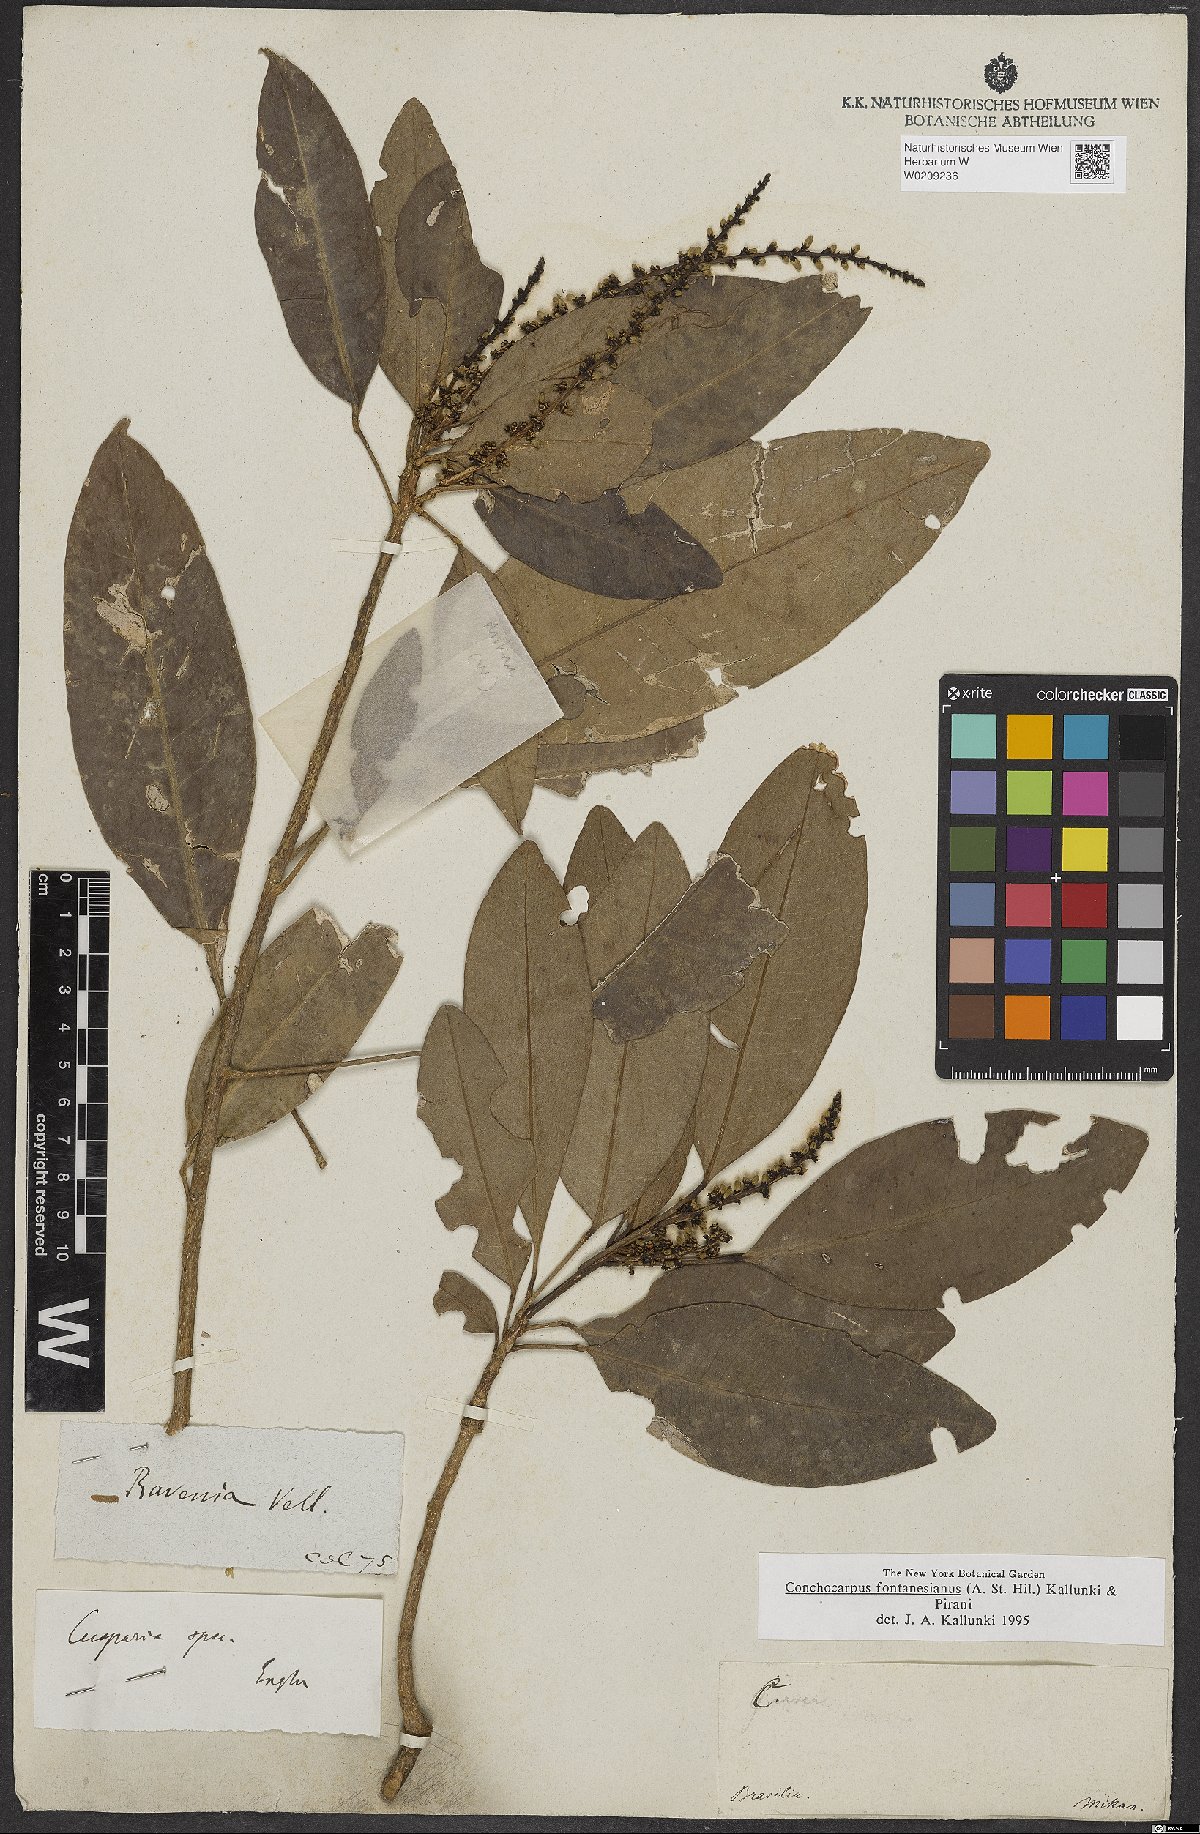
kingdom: Plantae
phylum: Tracheophyta
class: Magnoliopsida
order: Sapindales
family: Rutaceae
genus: Conchocarpus
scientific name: Conchocarpus fontanesianus
